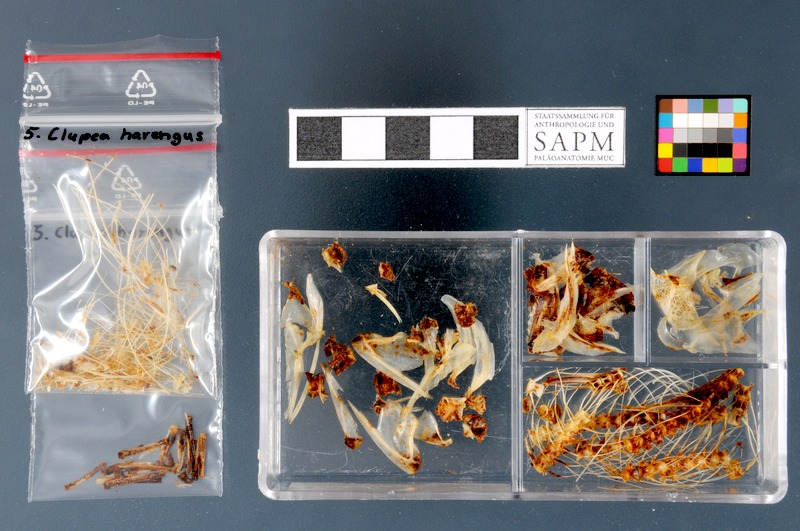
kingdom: Animalia
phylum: Chordata
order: Clupeiformes
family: Clupeidae
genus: Clupea
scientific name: Clupea harengus
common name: Herring
